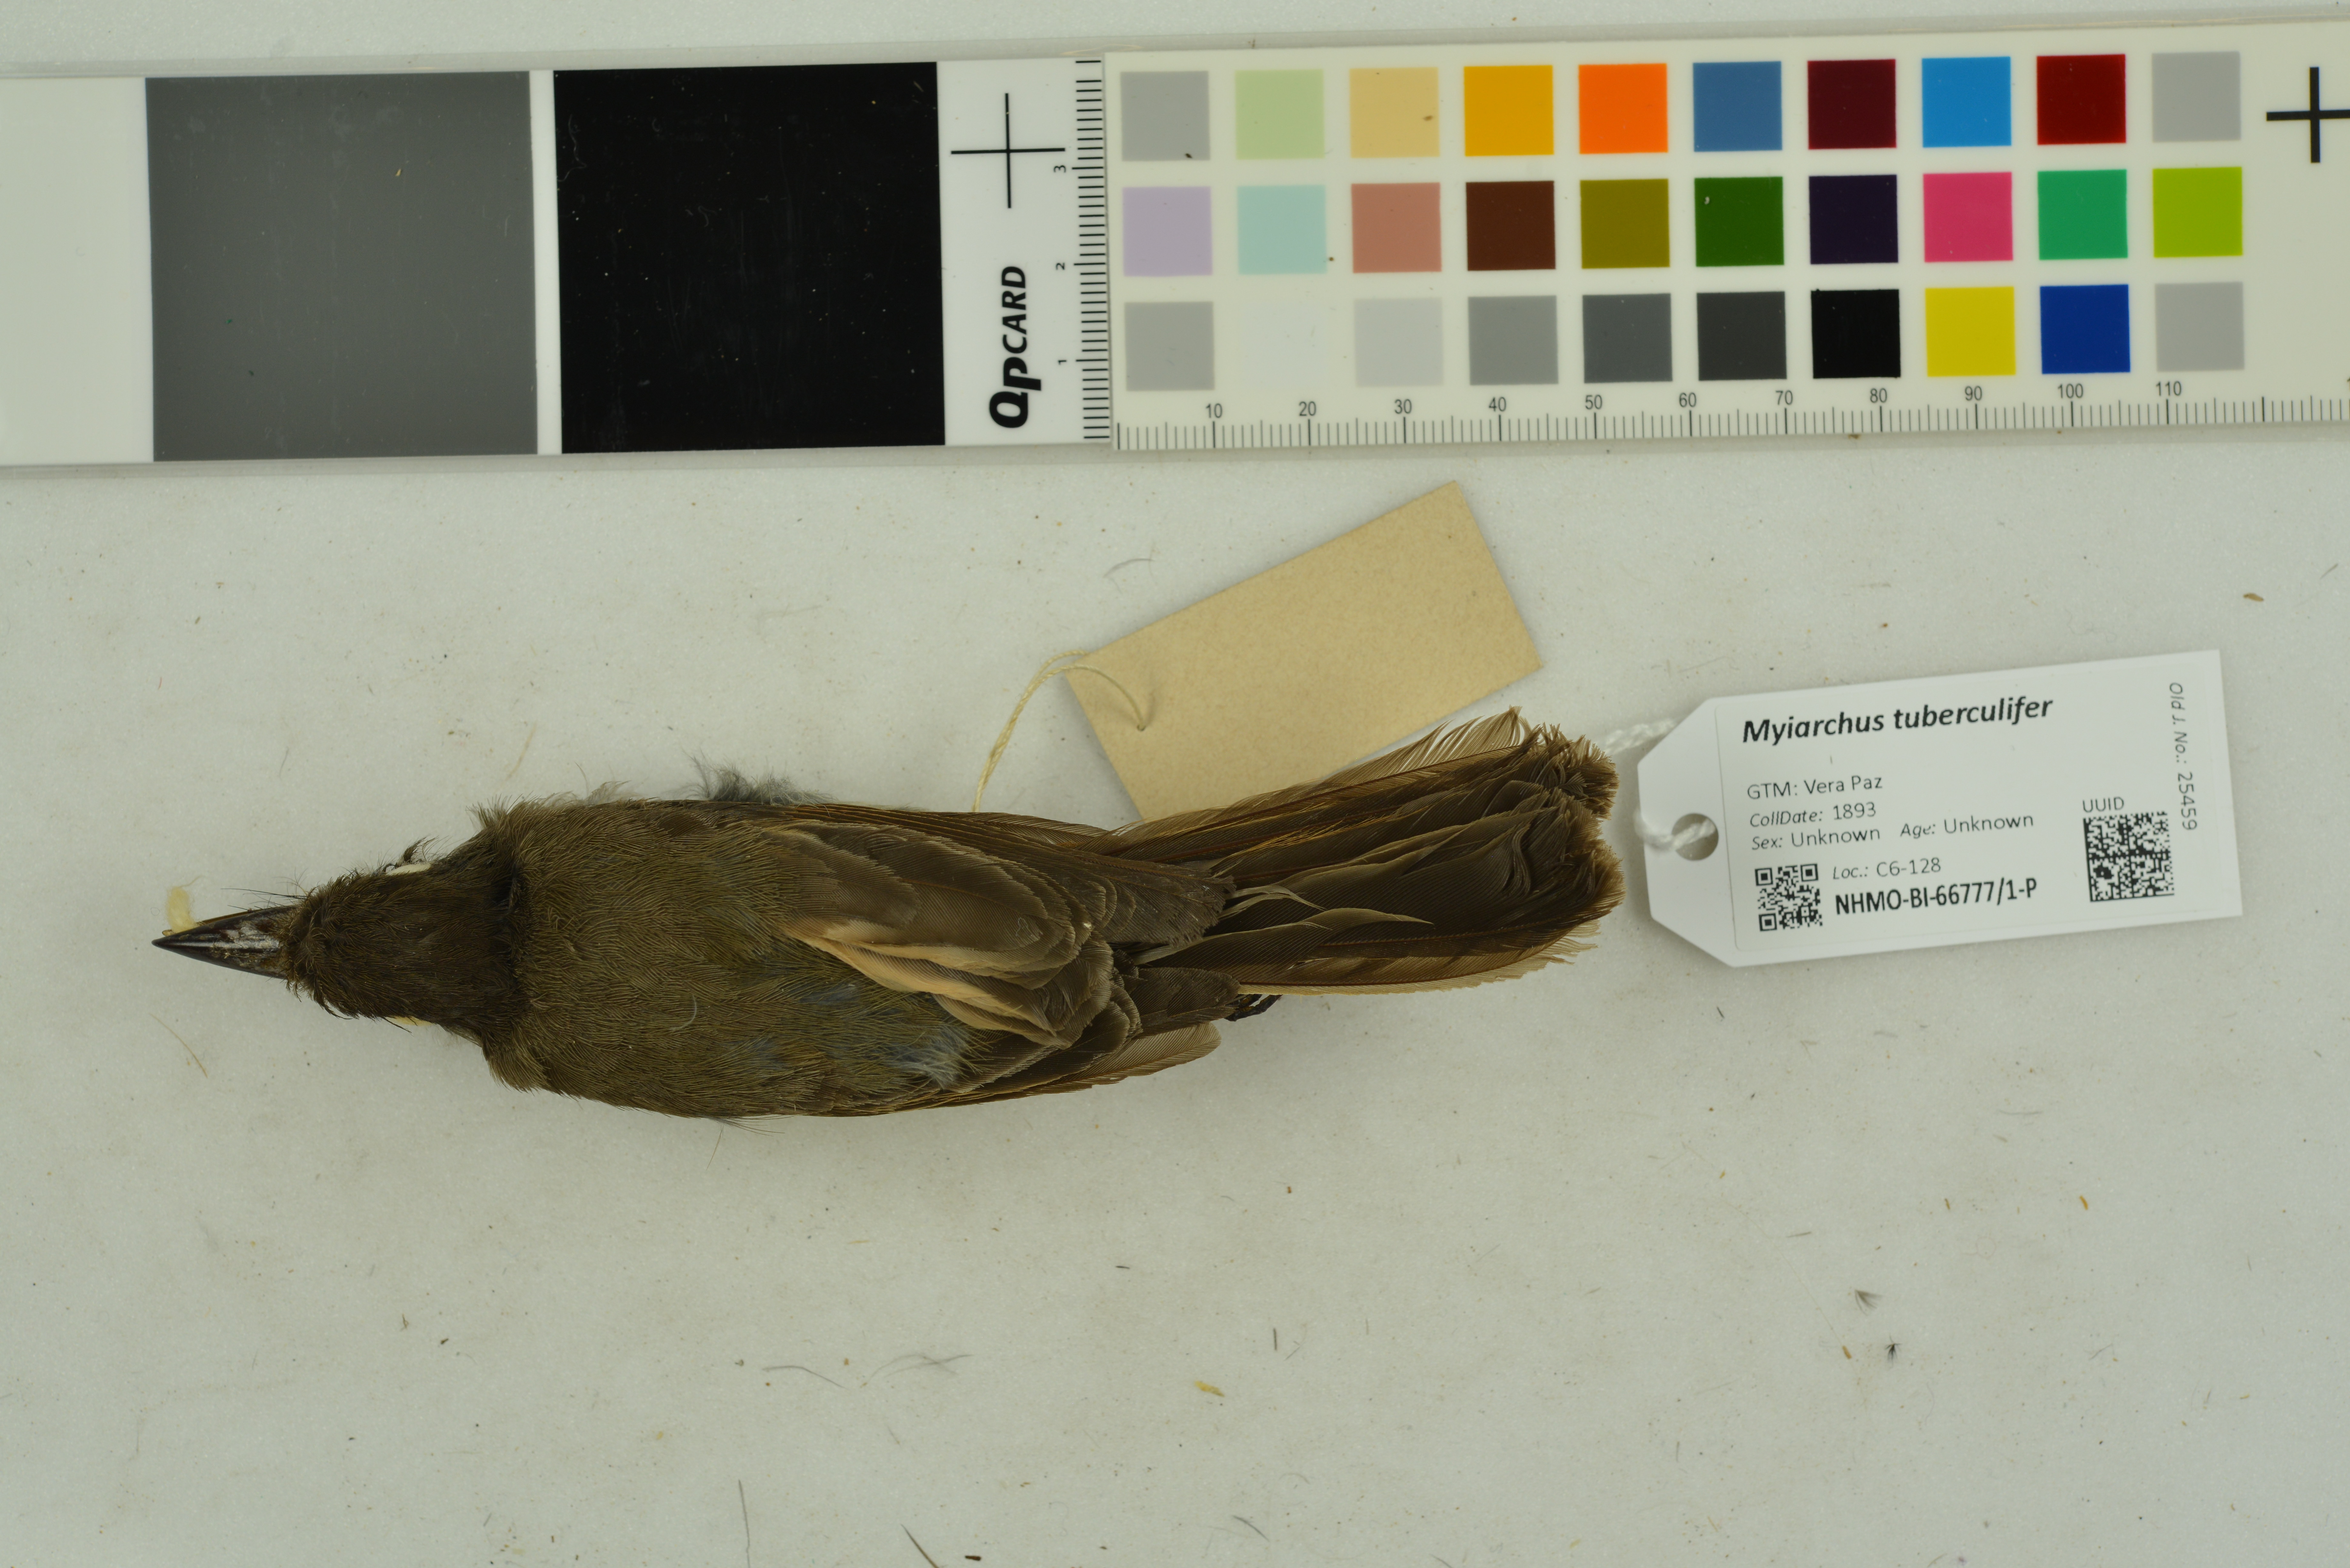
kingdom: Animalia
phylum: Chordata
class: Aves
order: Passeriformes
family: Tyrannidae
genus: Myiarchus
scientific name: Myiarchus tuberculifer
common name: Dusky-capped flycatcher
